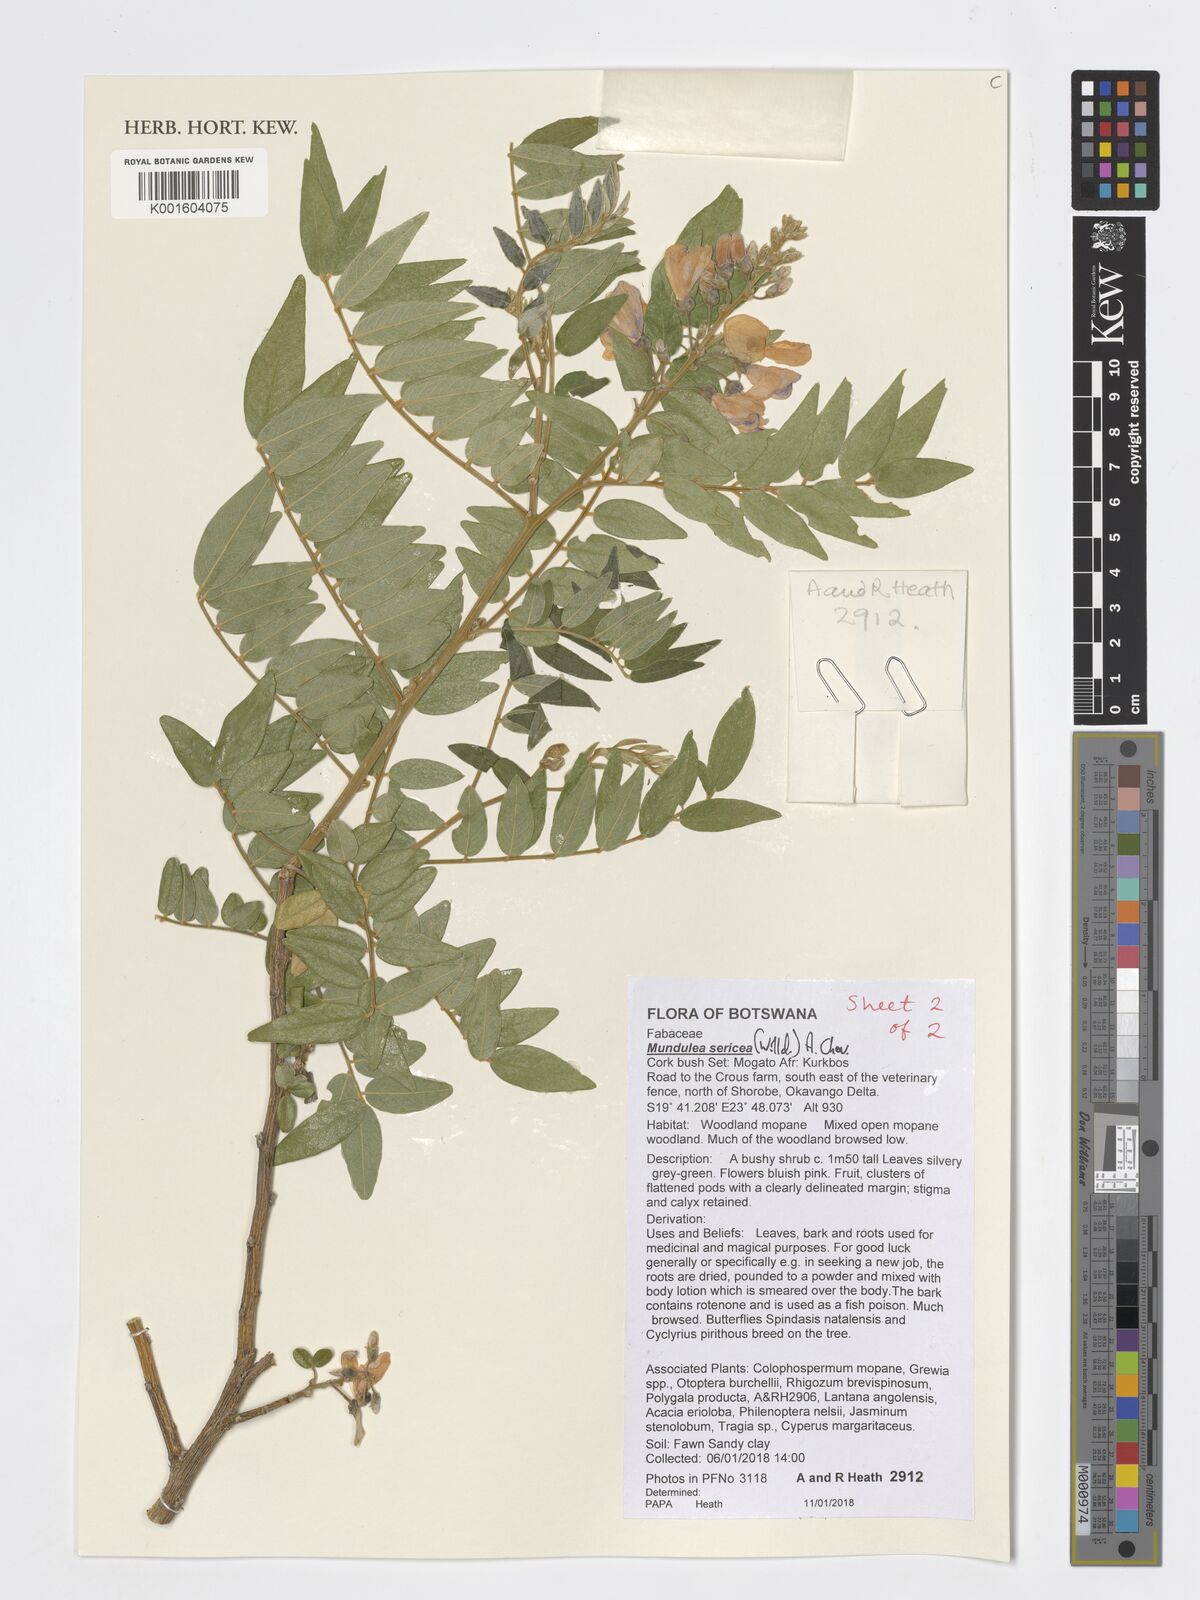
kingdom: Plantae
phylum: Tracheophyta
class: Magnoliopsida
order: Fabales
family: Fabaceae
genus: Mundulea
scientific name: Mundulea sericea
